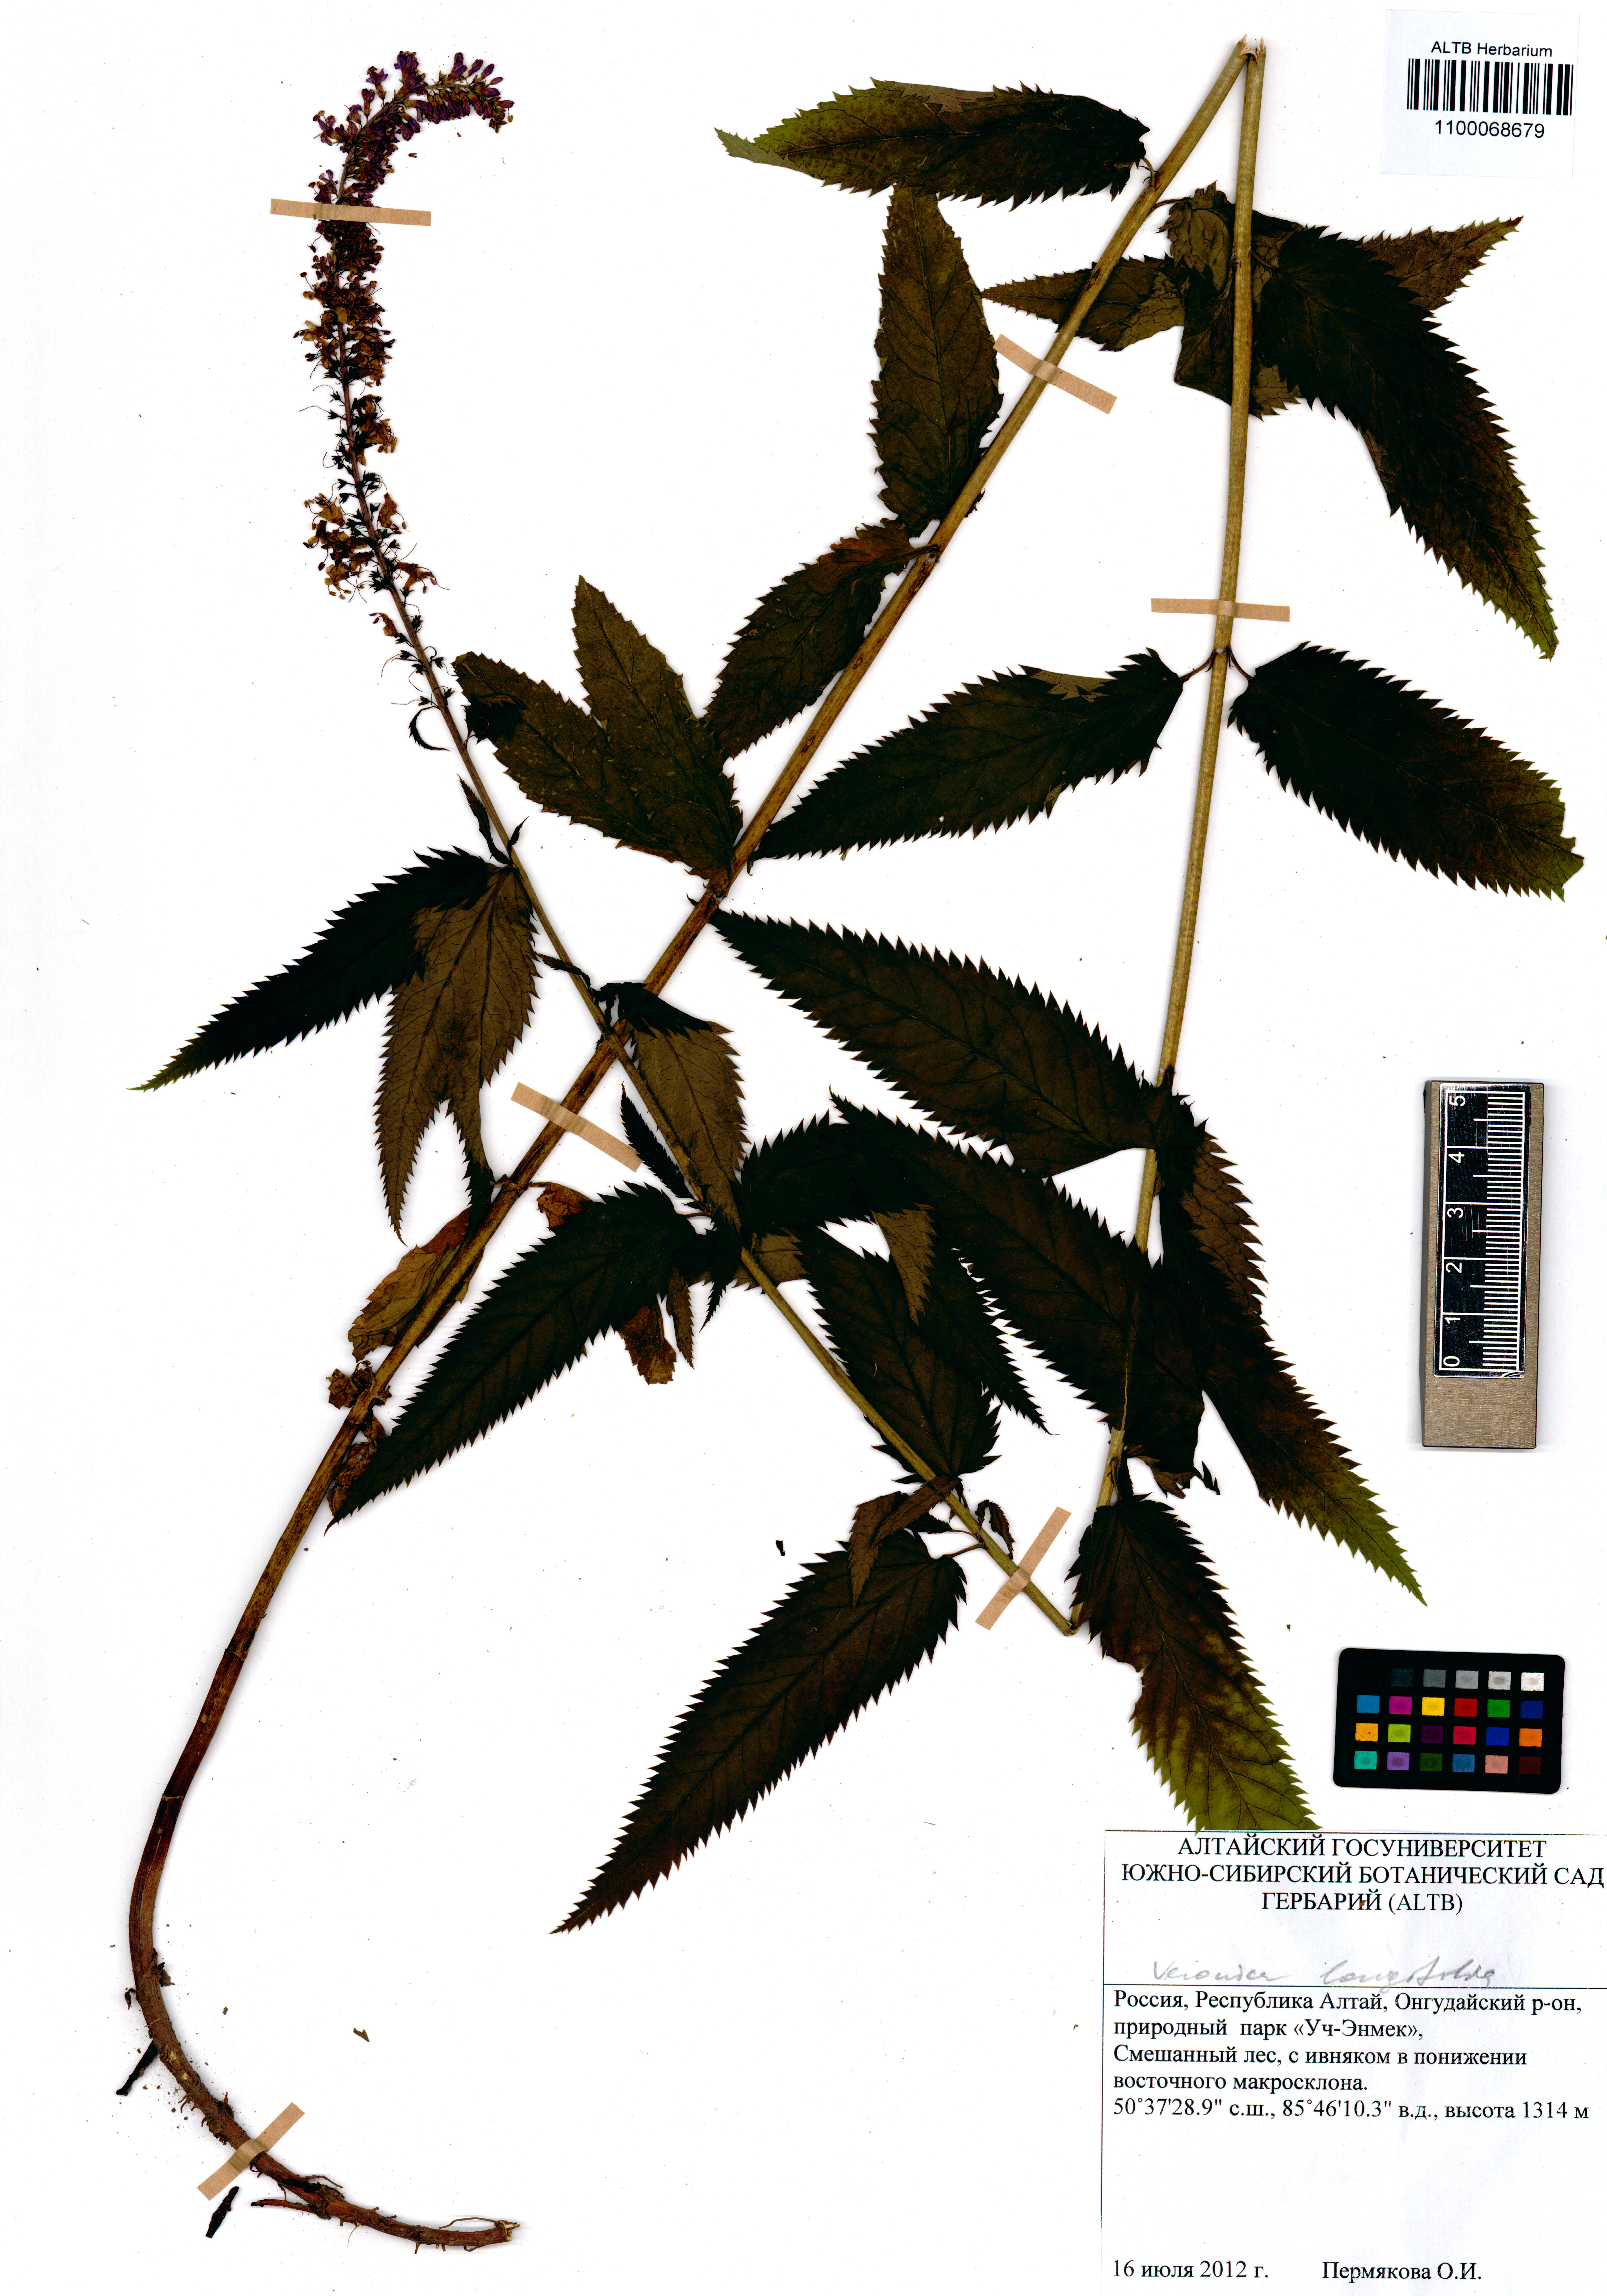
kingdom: Plantae
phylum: Tracheophyta
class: Magnoliopsida
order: Lamiales
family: Plantaginaceae
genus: Veronica
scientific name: Veronica longifolia
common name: Garden speedwell
